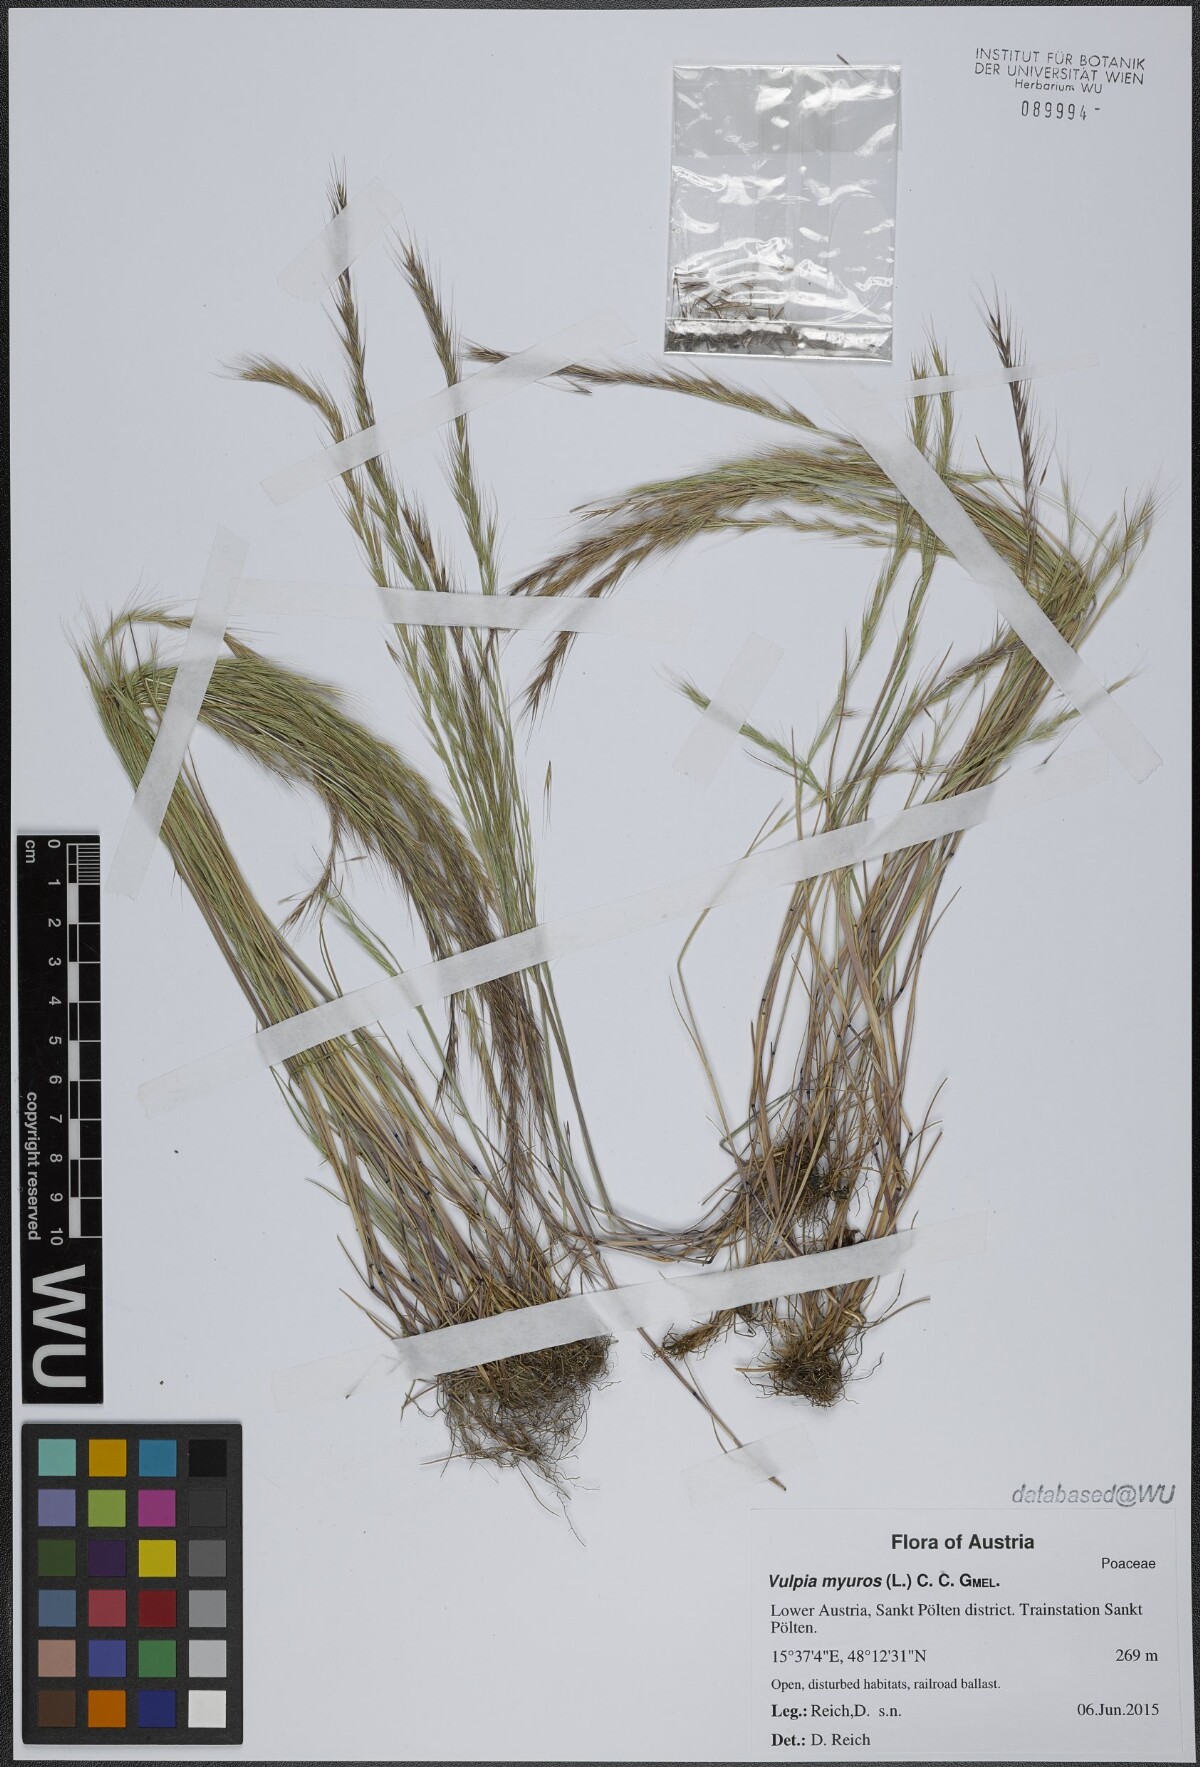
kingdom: Plantae
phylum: Tracheophyta
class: Liliopsida
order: Poales
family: Poaceae
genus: Festuca
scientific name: Festuca myuros
